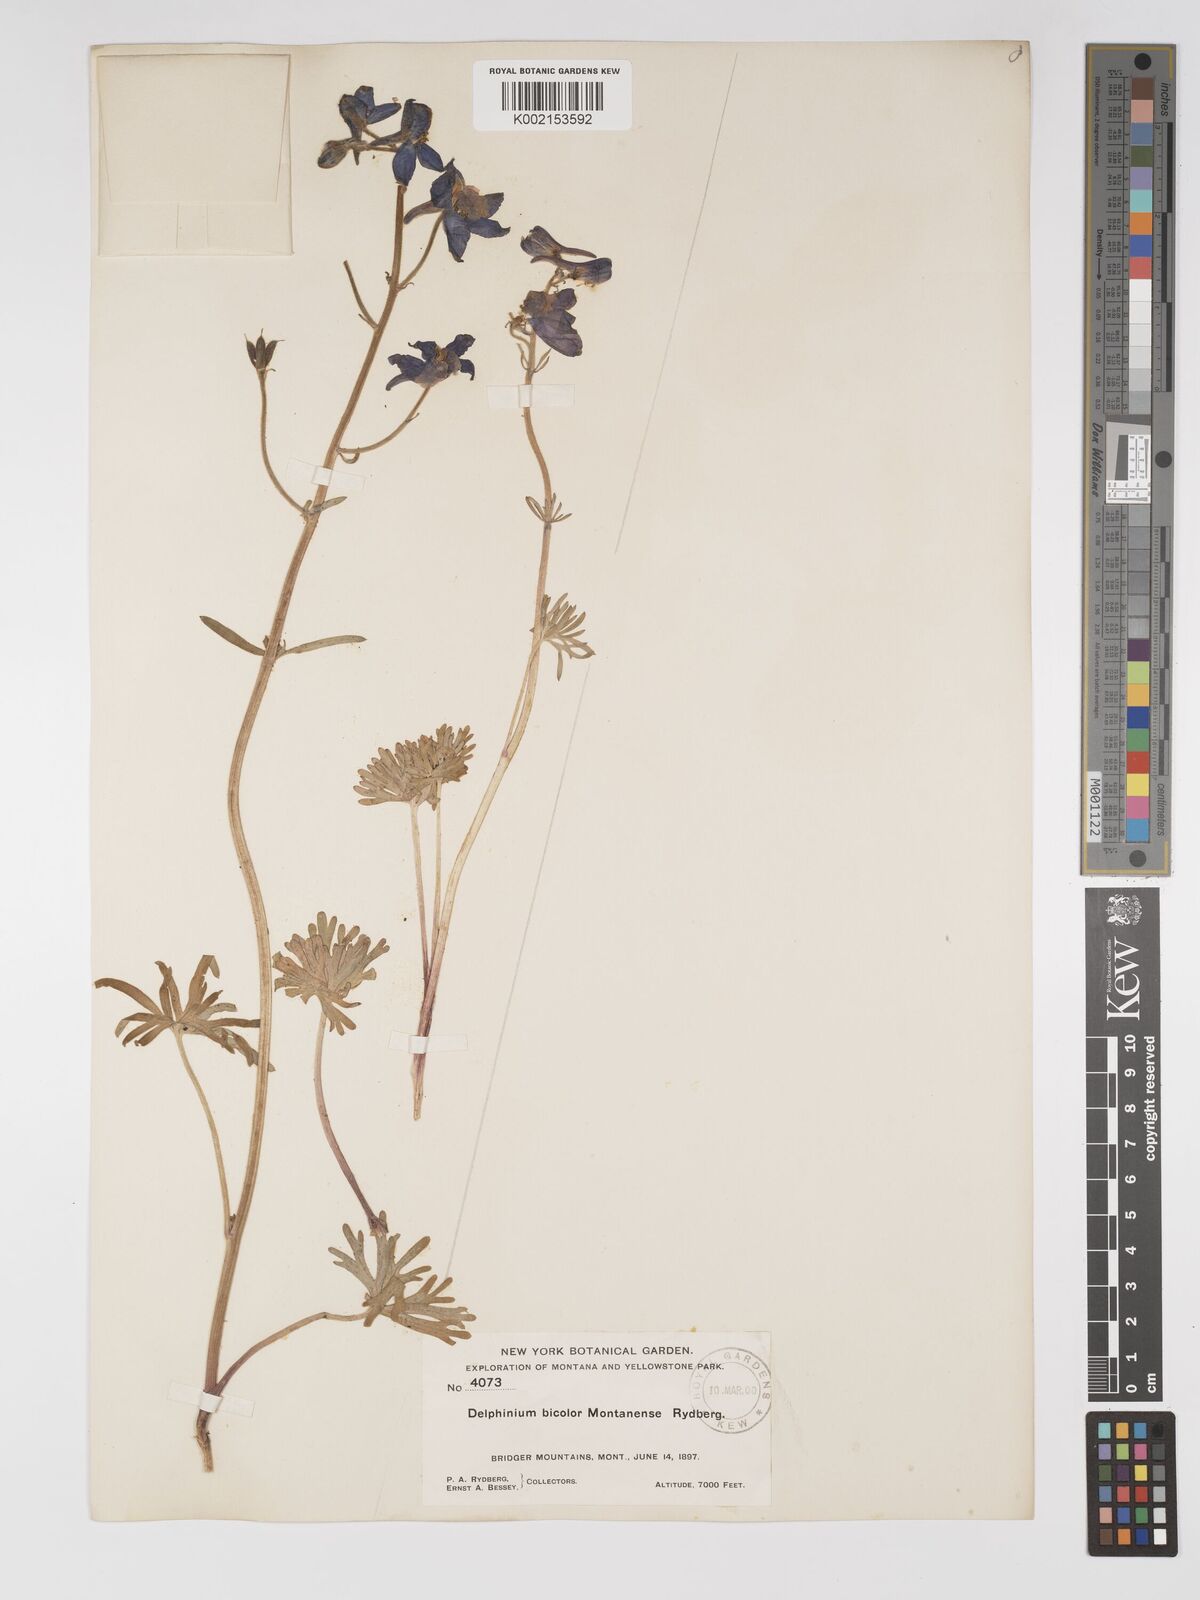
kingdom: Plantae
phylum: Tracheophyta
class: Magnoliopsida
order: Ranunculales
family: Ranunculaceae
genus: Delphinium
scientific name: Delphinium bicolor
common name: Low larkspur
